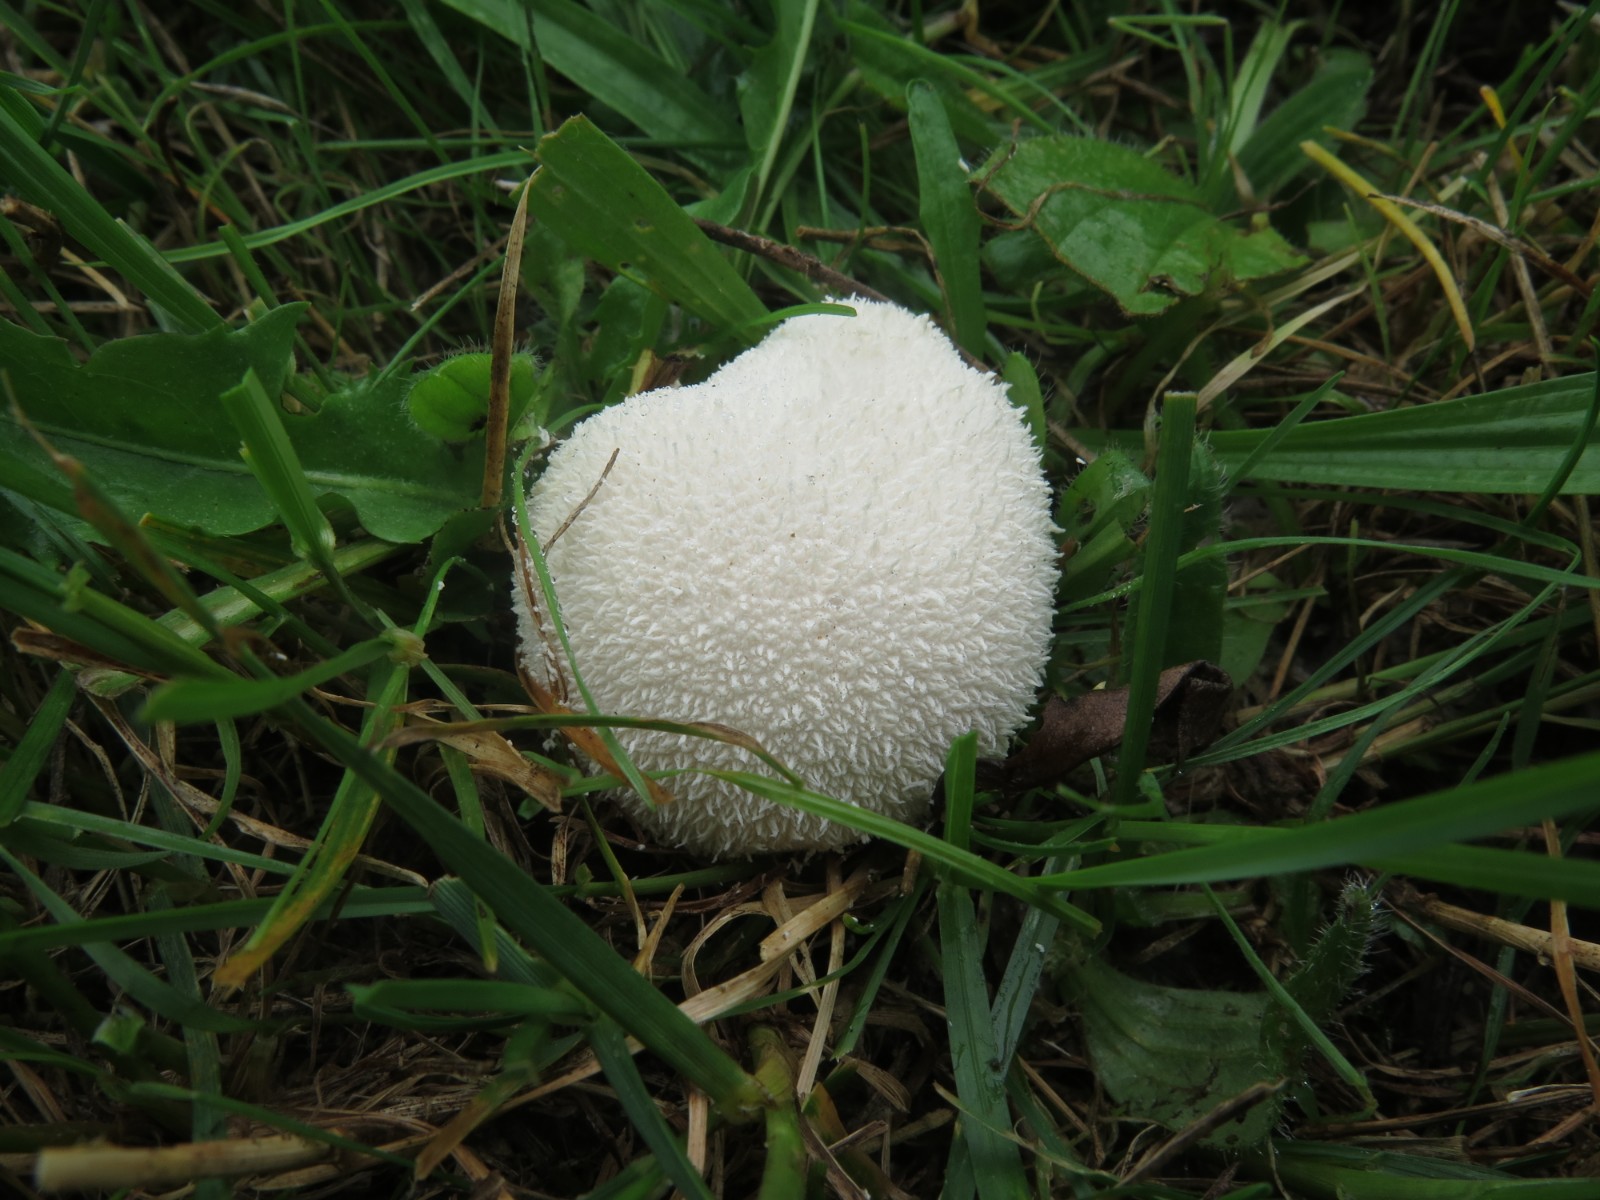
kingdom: Fungi
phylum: Basidiomycota
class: Agaricomycetes
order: Agaricales
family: Lycoperdaceae
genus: Lycoperdon
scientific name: Lycoperdon perlatum
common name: krystal-støvbold
